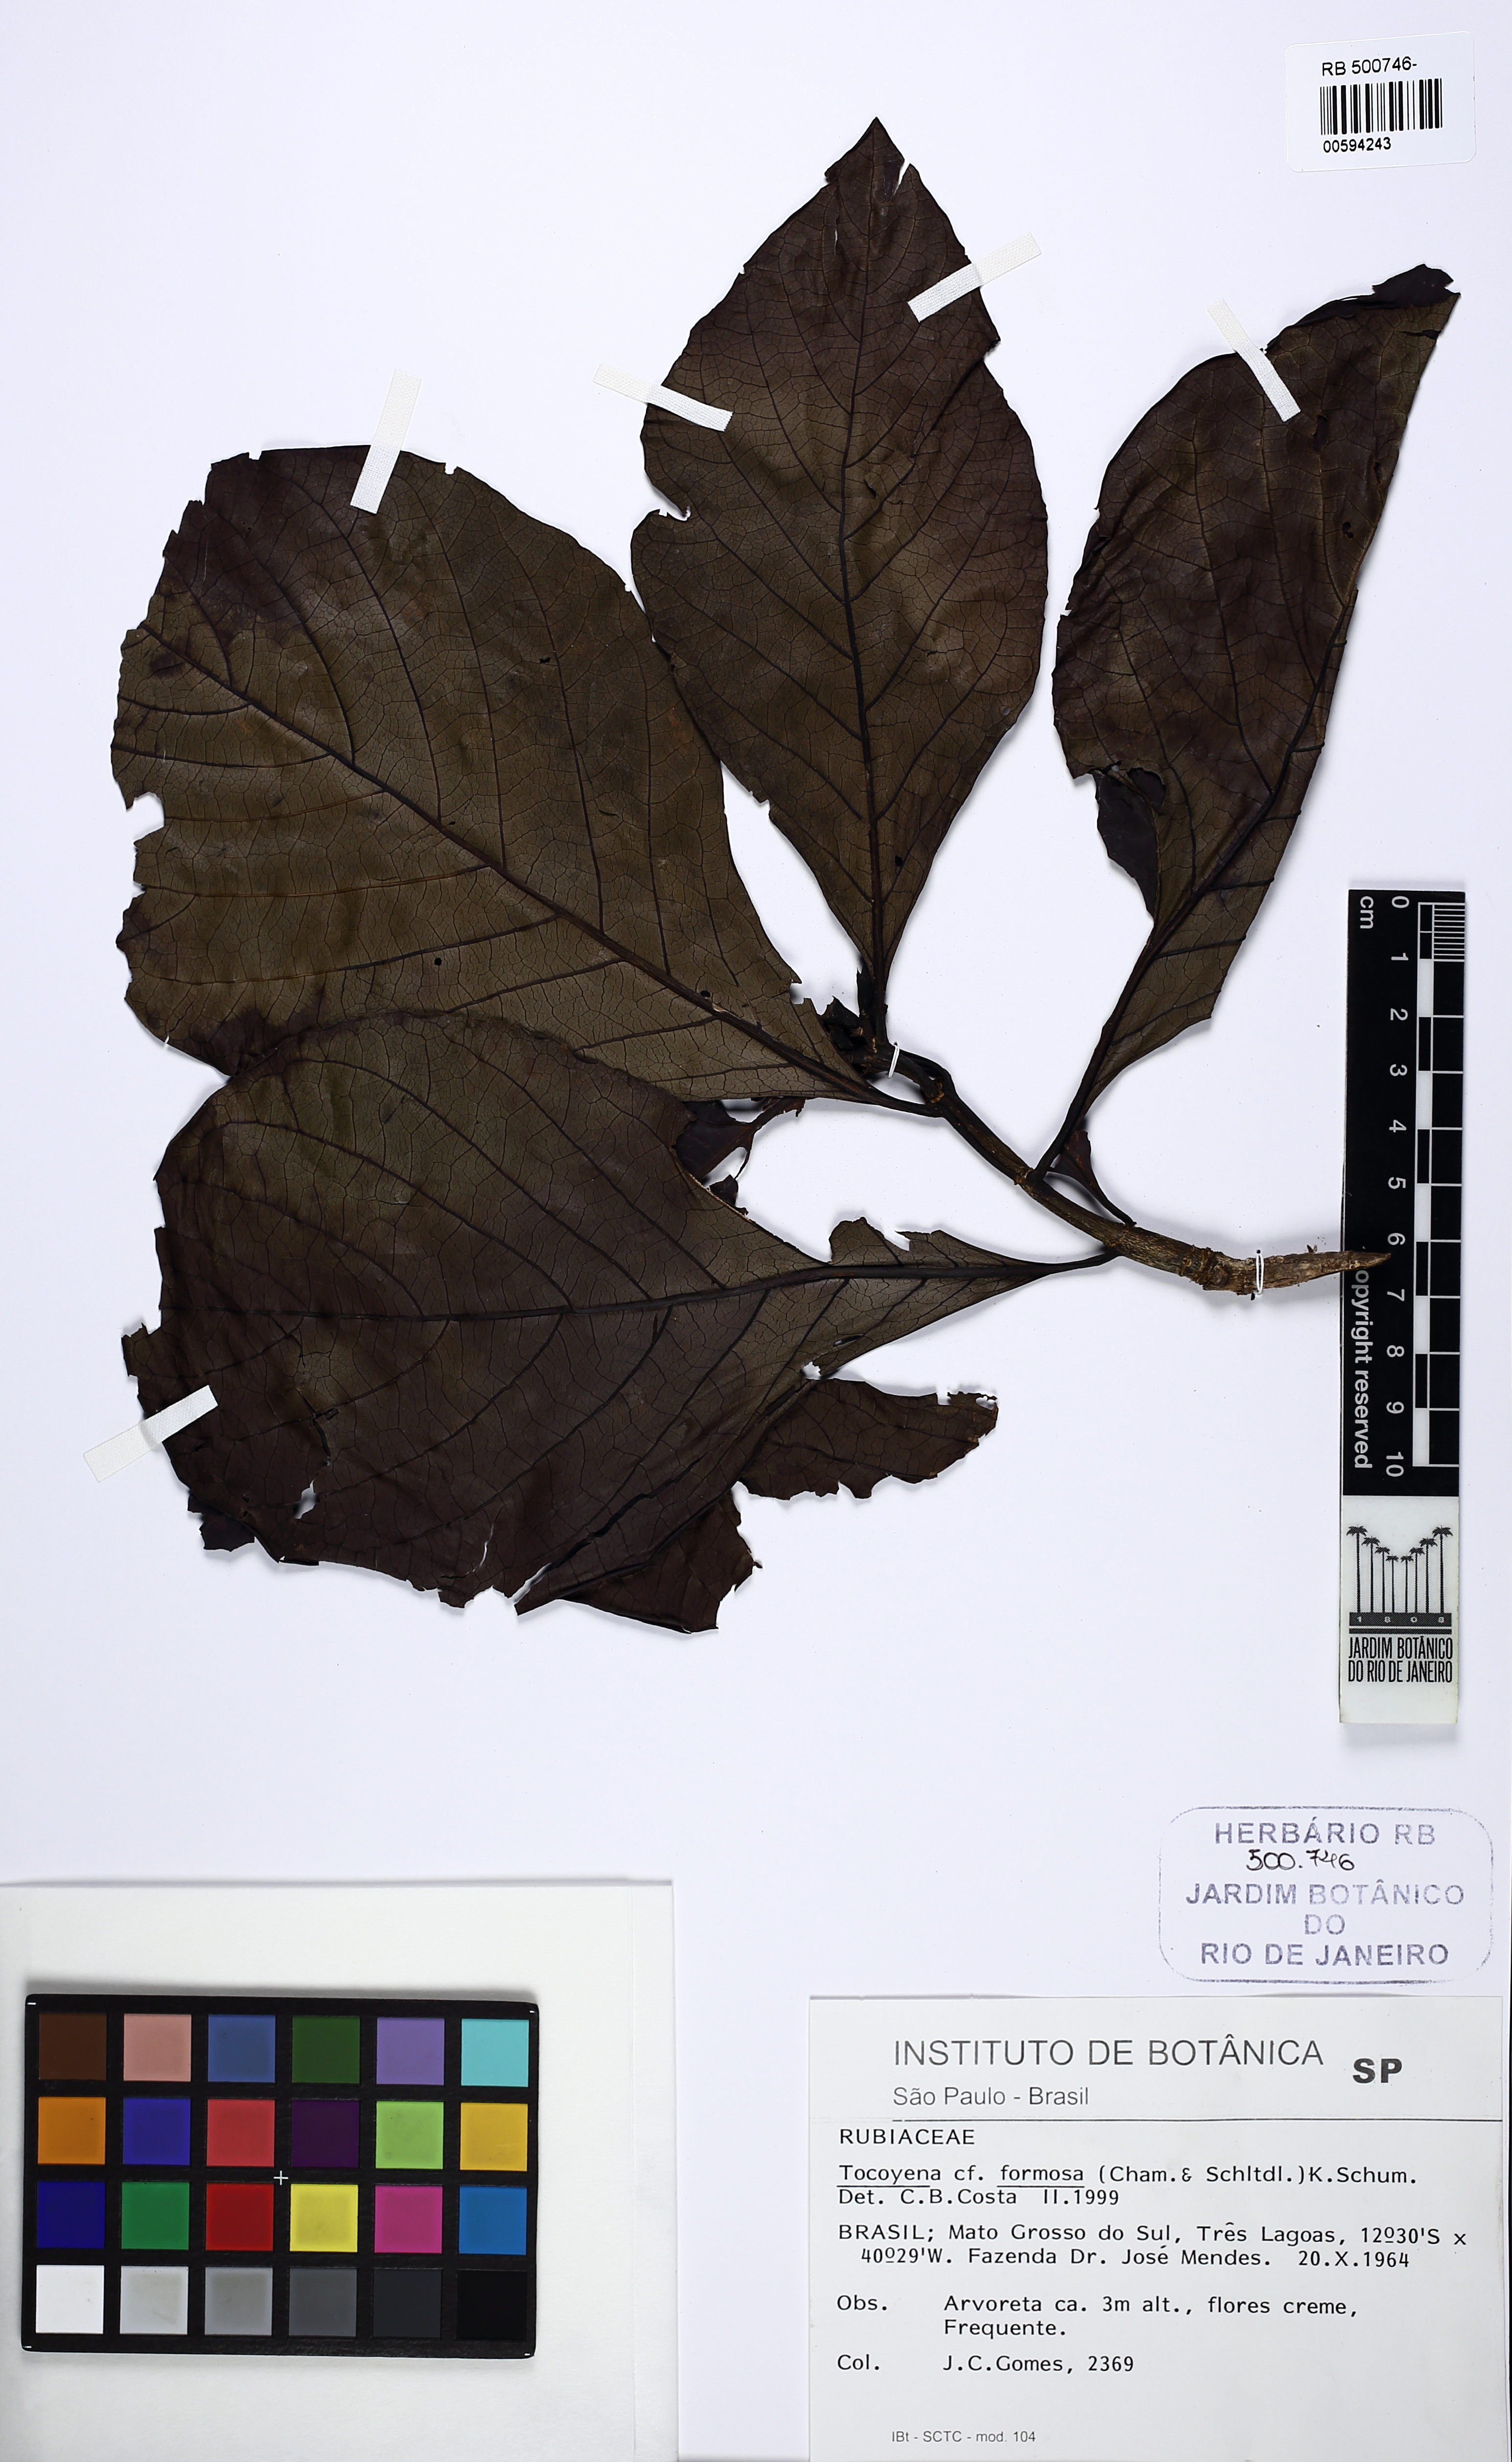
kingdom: Plantae
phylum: Tracheophyta
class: Magnoliopsida
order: Gentianales
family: Rubiaceae
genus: Tocoyena
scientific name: Tocoyena formosa
